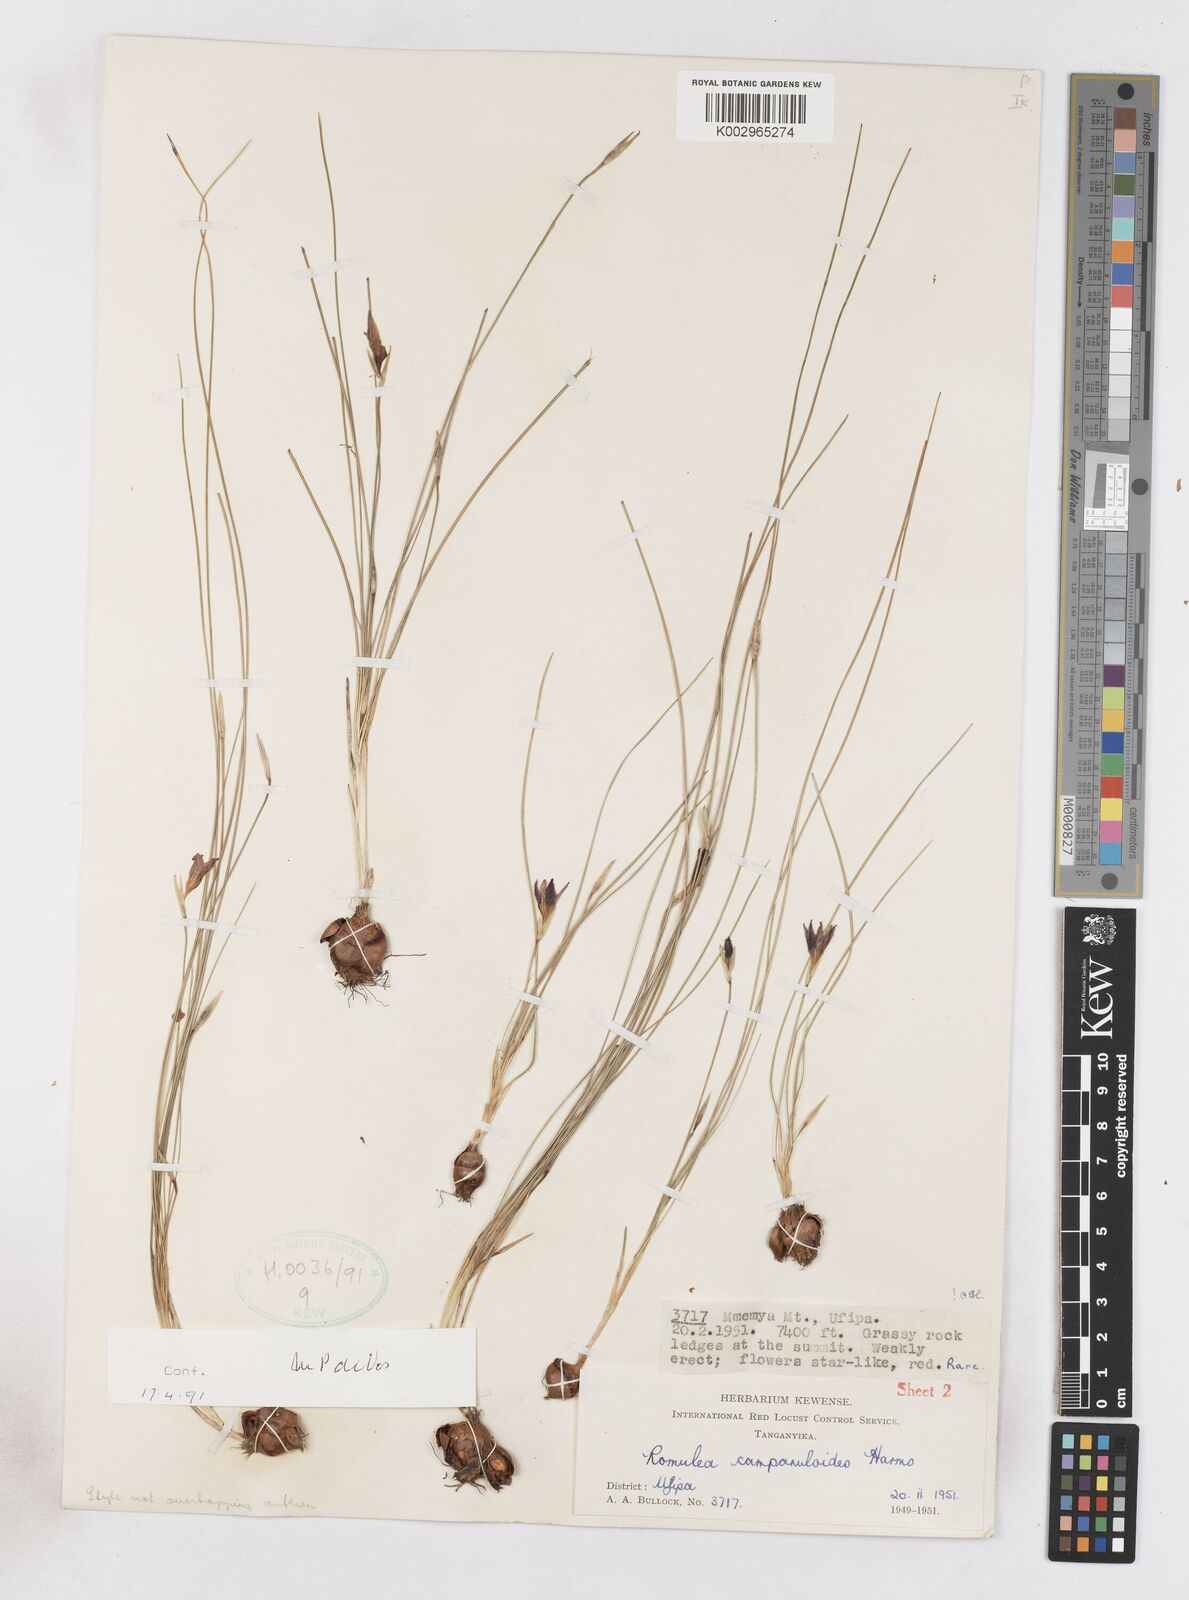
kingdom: Plantae
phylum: Tracheophyta
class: Liliopsida
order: Asparagales
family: Iridaceae
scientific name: Iridaceae
